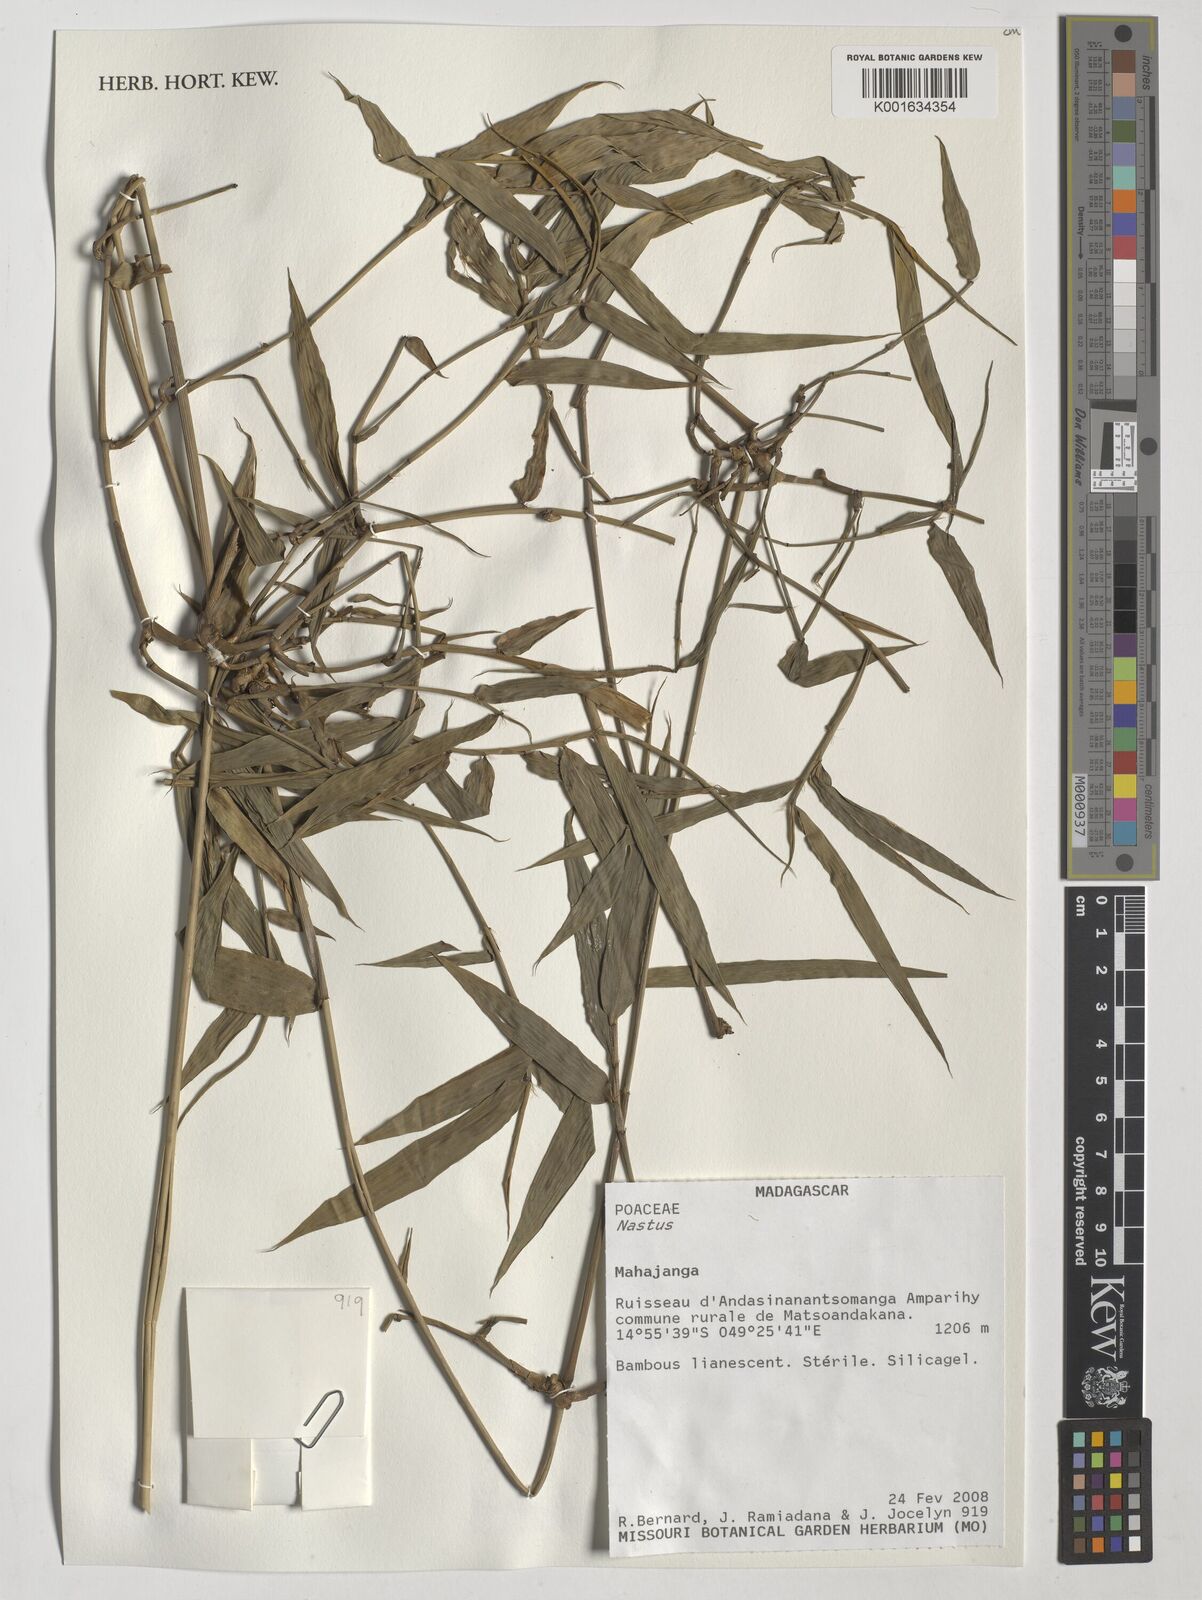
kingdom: Plantae
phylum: Tracheophyta
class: Liliopsida
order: Poales
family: Poaceae
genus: Nastus
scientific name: Nastus
